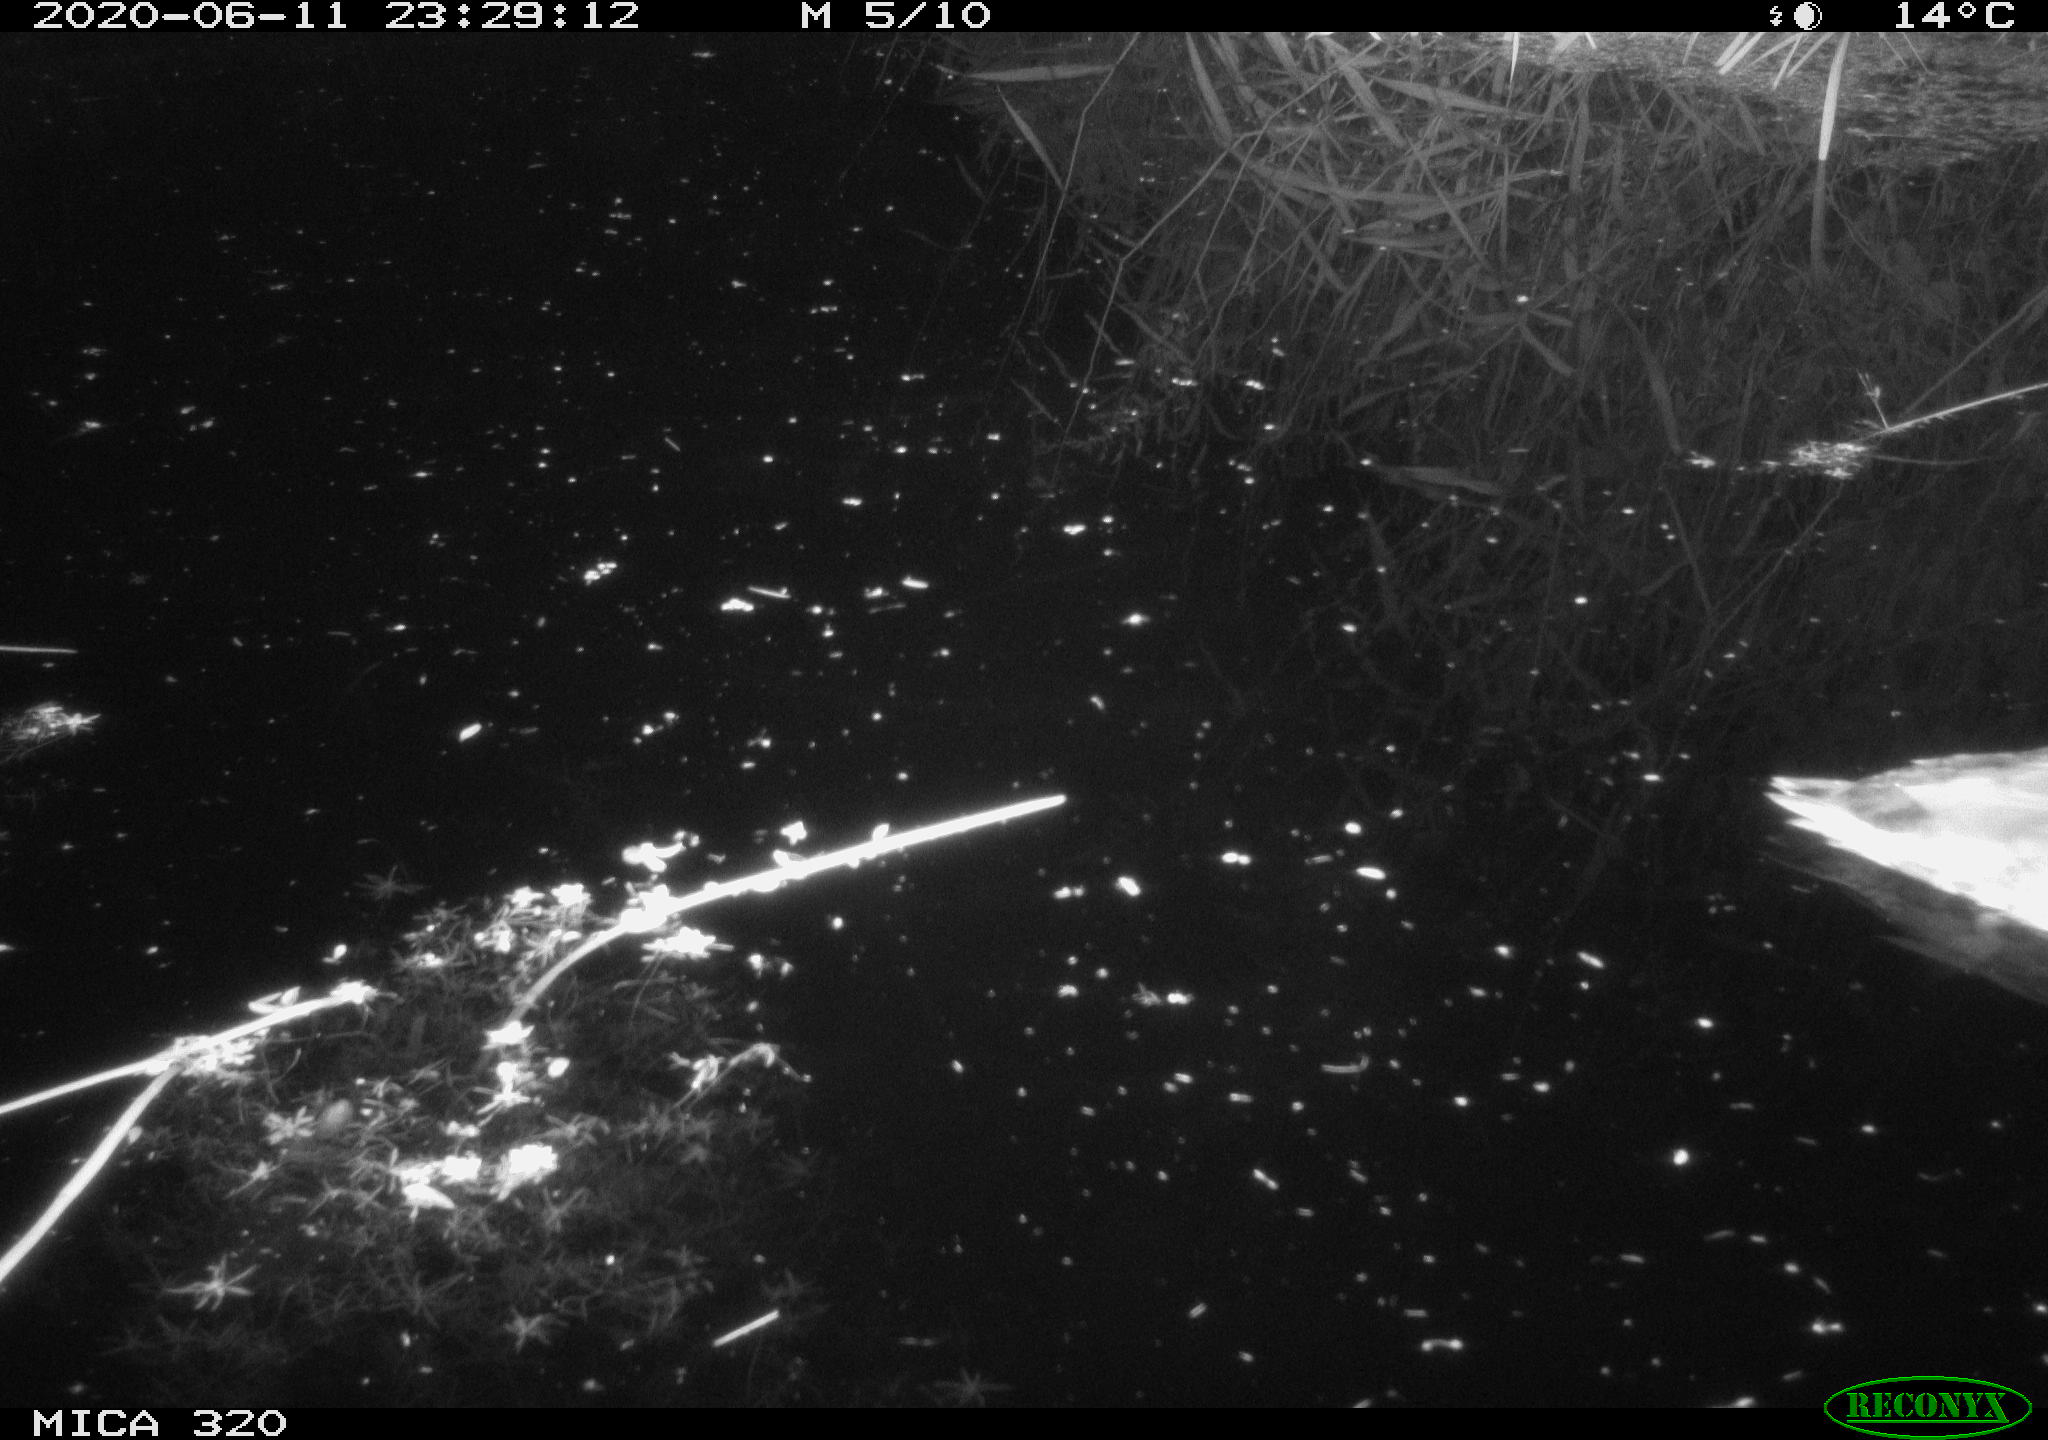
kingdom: Animalia
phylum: Chordata
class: Aves
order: Anseriformes
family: Anatidae
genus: Anas
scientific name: Anas platyrhynchos
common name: Mallard
